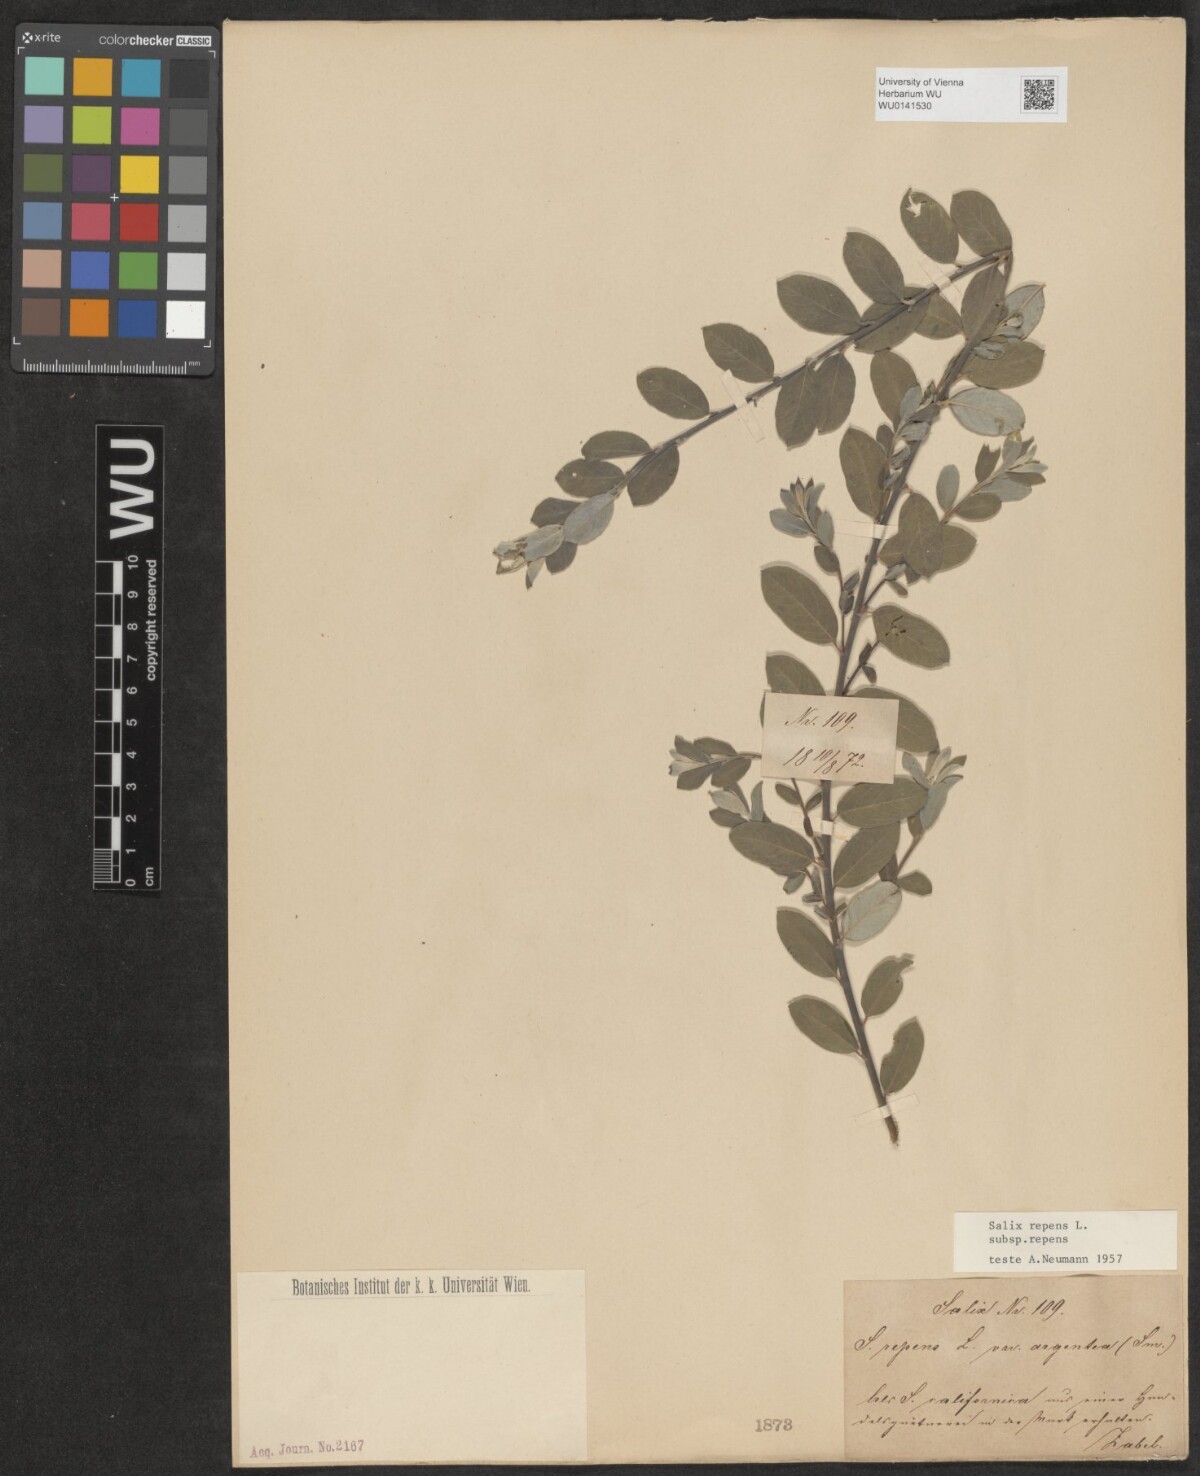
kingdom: Plantae
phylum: Tracheophyta
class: Magnoliopsida
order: Malpighiales
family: Salicaceae
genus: Salix
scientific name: Salix repens
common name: Creeping willow
